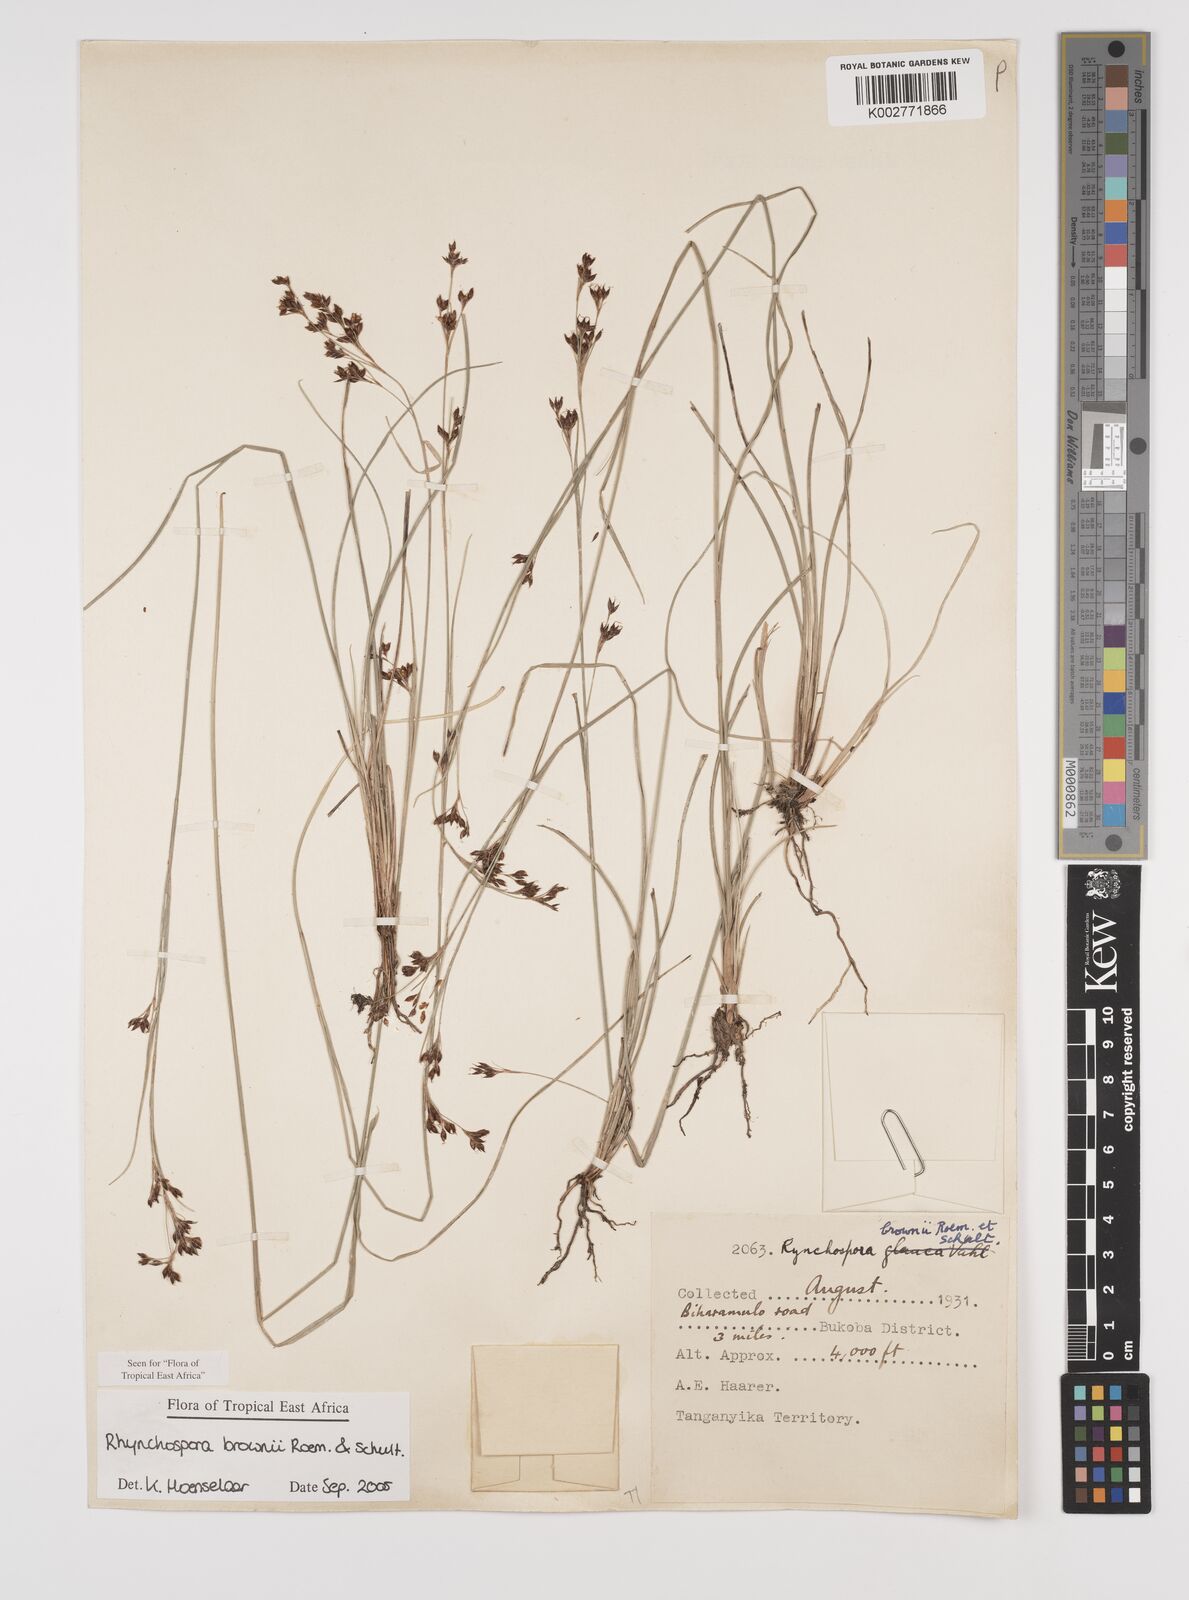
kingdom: Plantae
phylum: Tracheophyta
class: Liliopsida
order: Poales
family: Cyperaceae
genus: Rhynchospora
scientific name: Rhynchospora brownii
